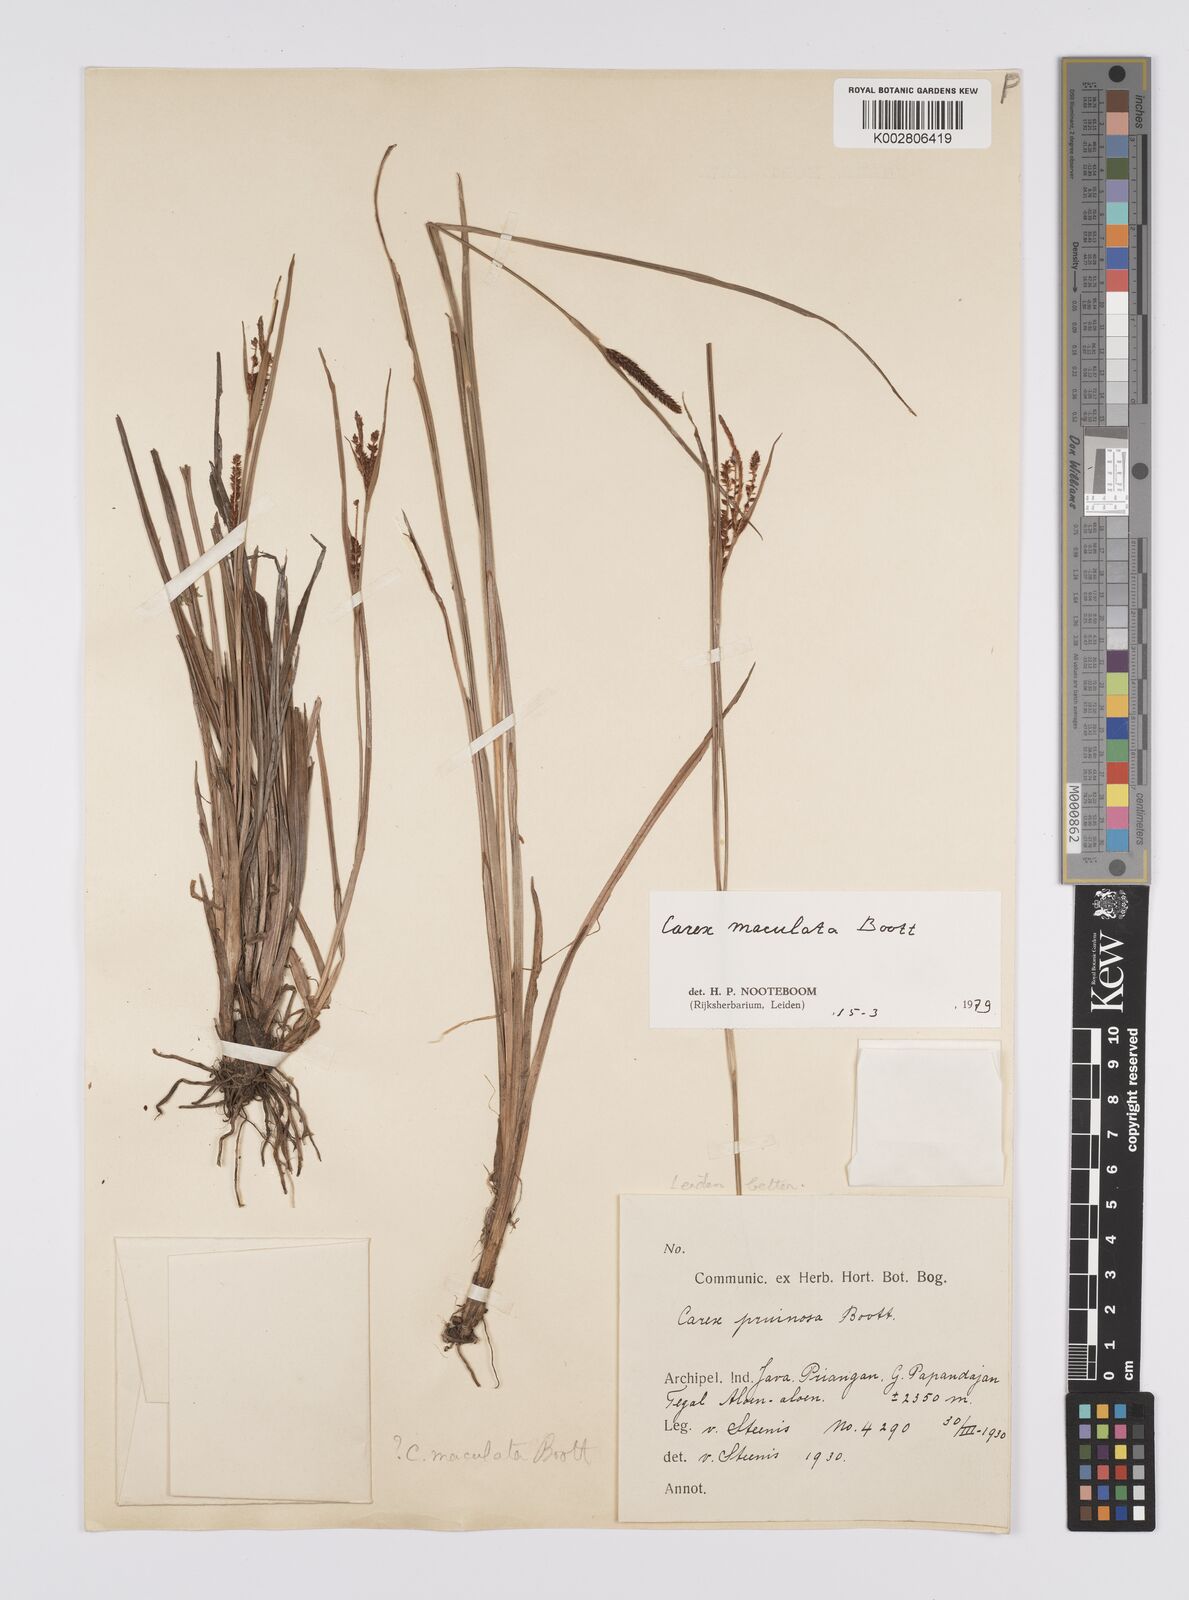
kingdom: Plantae
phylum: Tracheophyta
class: Liliopsida
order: Poales
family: Cyperaceae
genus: Carex
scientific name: Carex maculata
